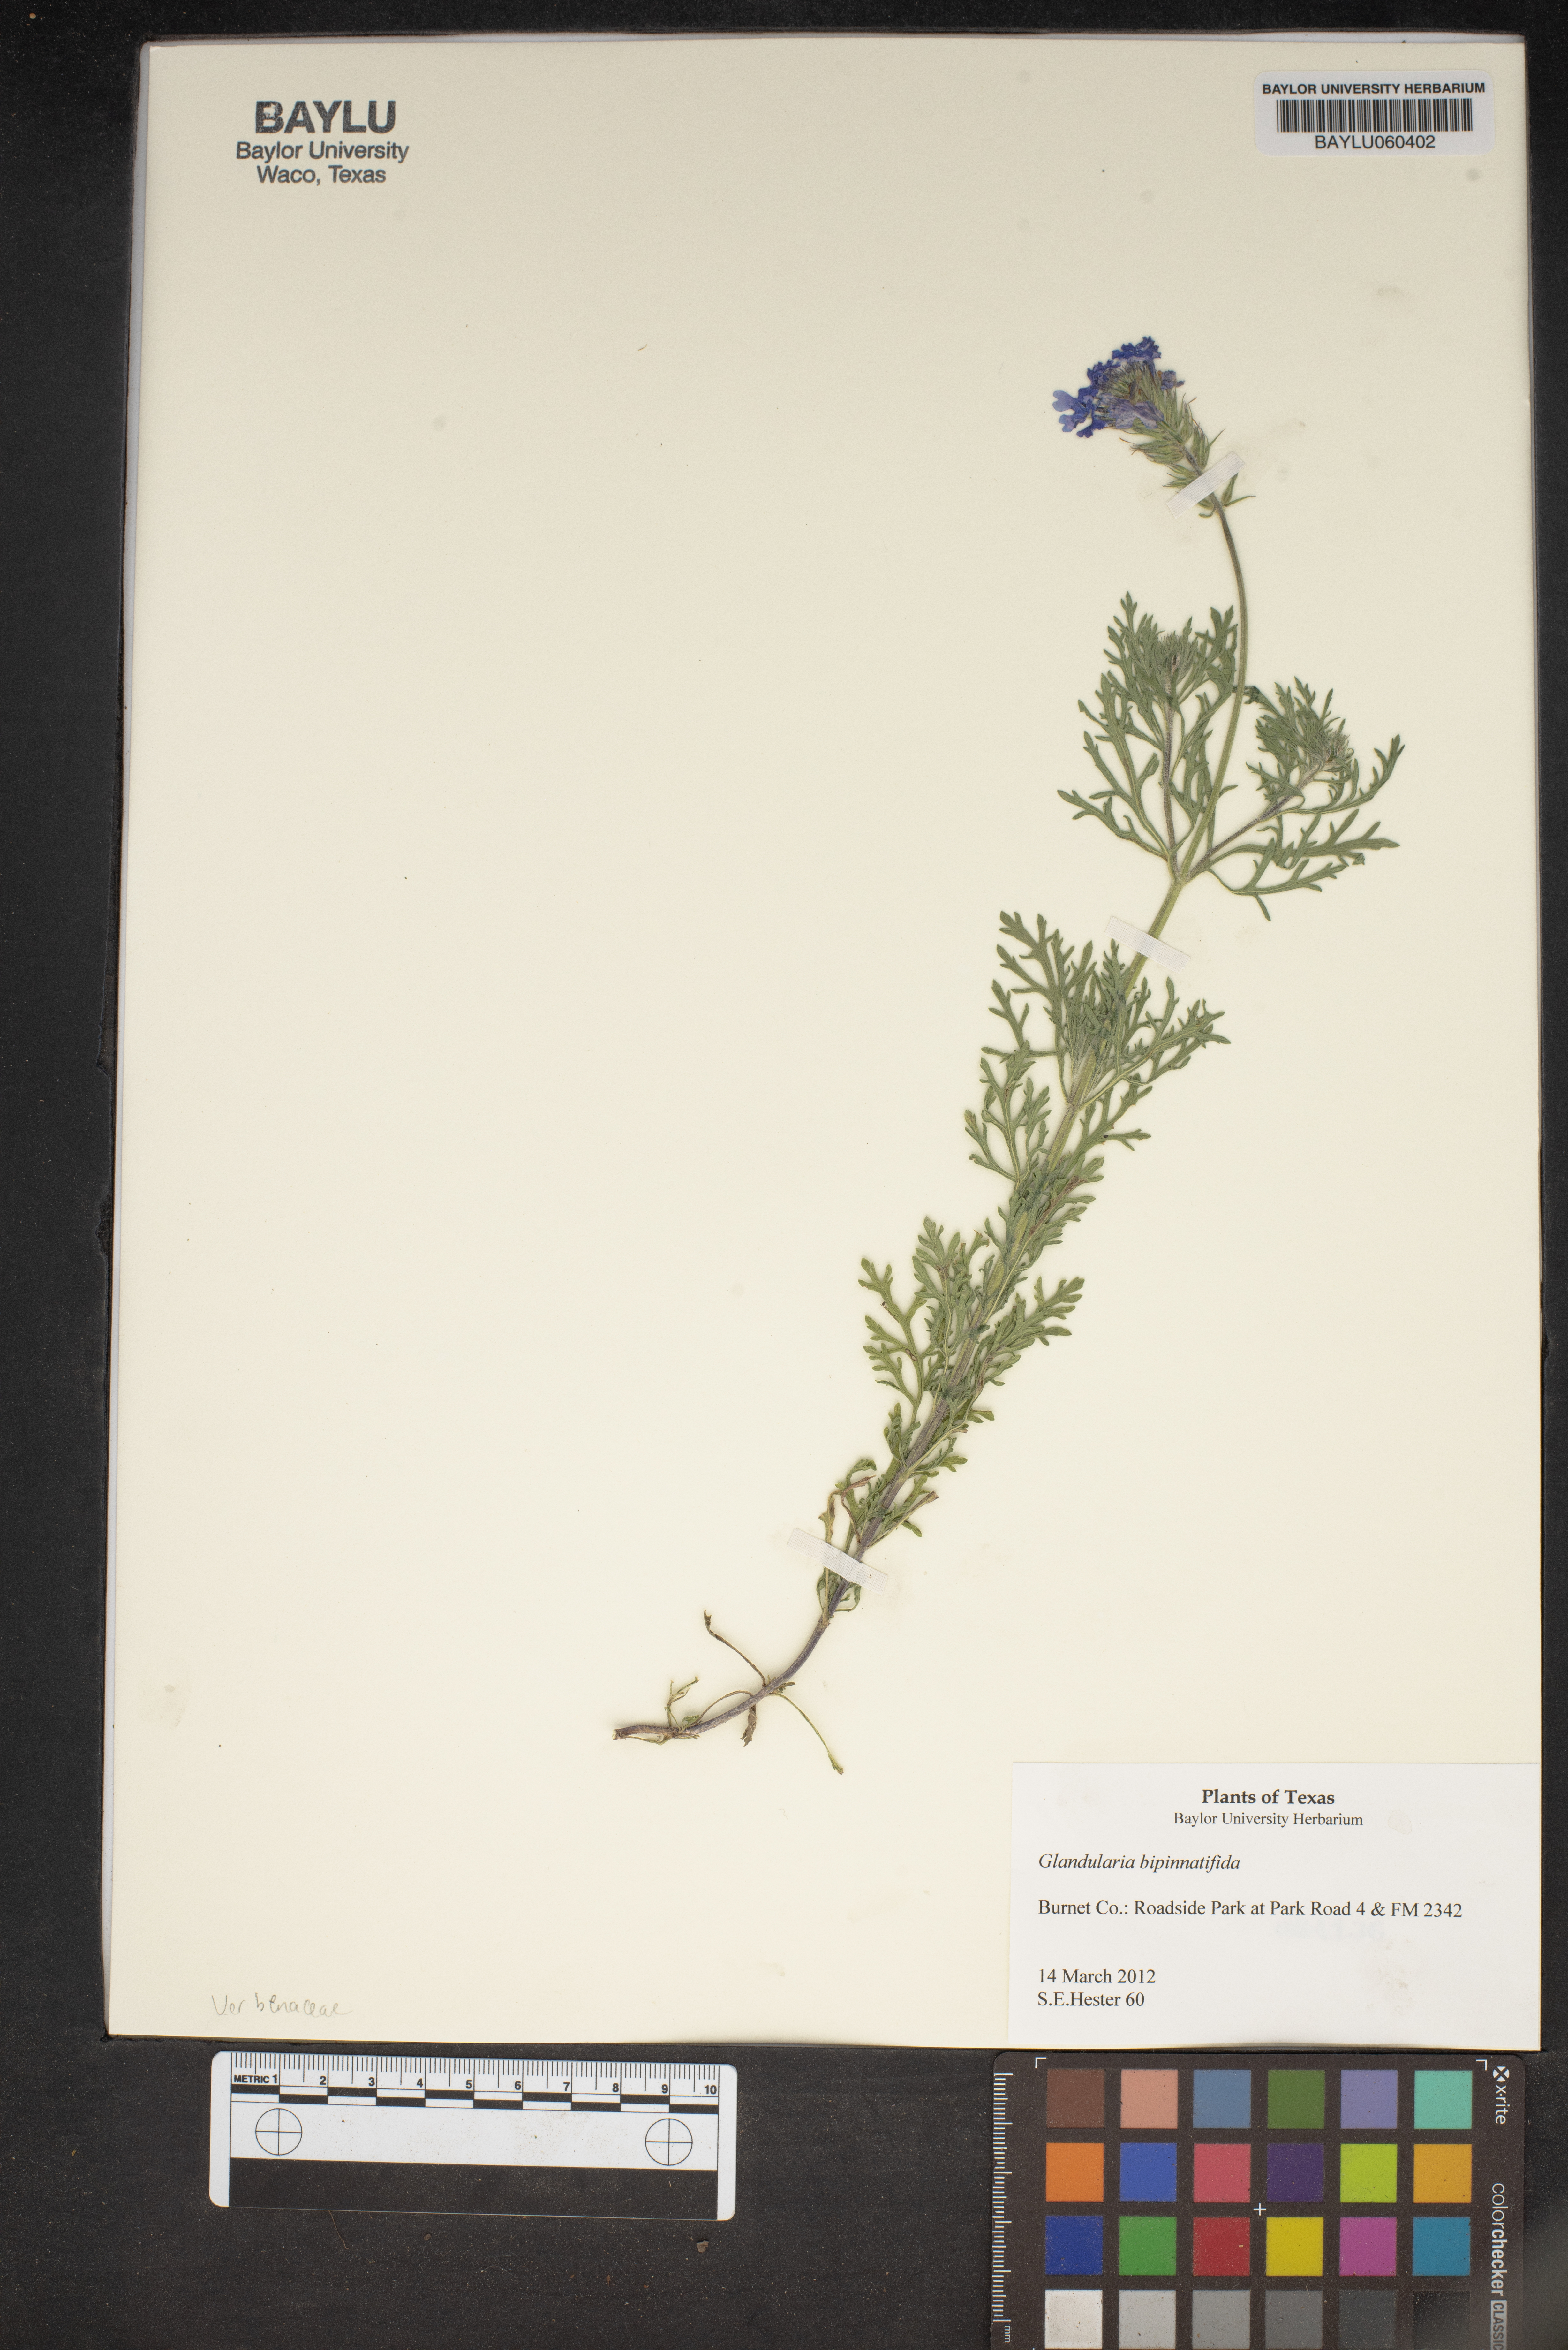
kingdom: Plantae
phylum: Tracheophyta
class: Magnoliopsida
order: Lamiales
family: Verbenaceae
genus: Verbena
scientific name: Verbena bipinnatifida
